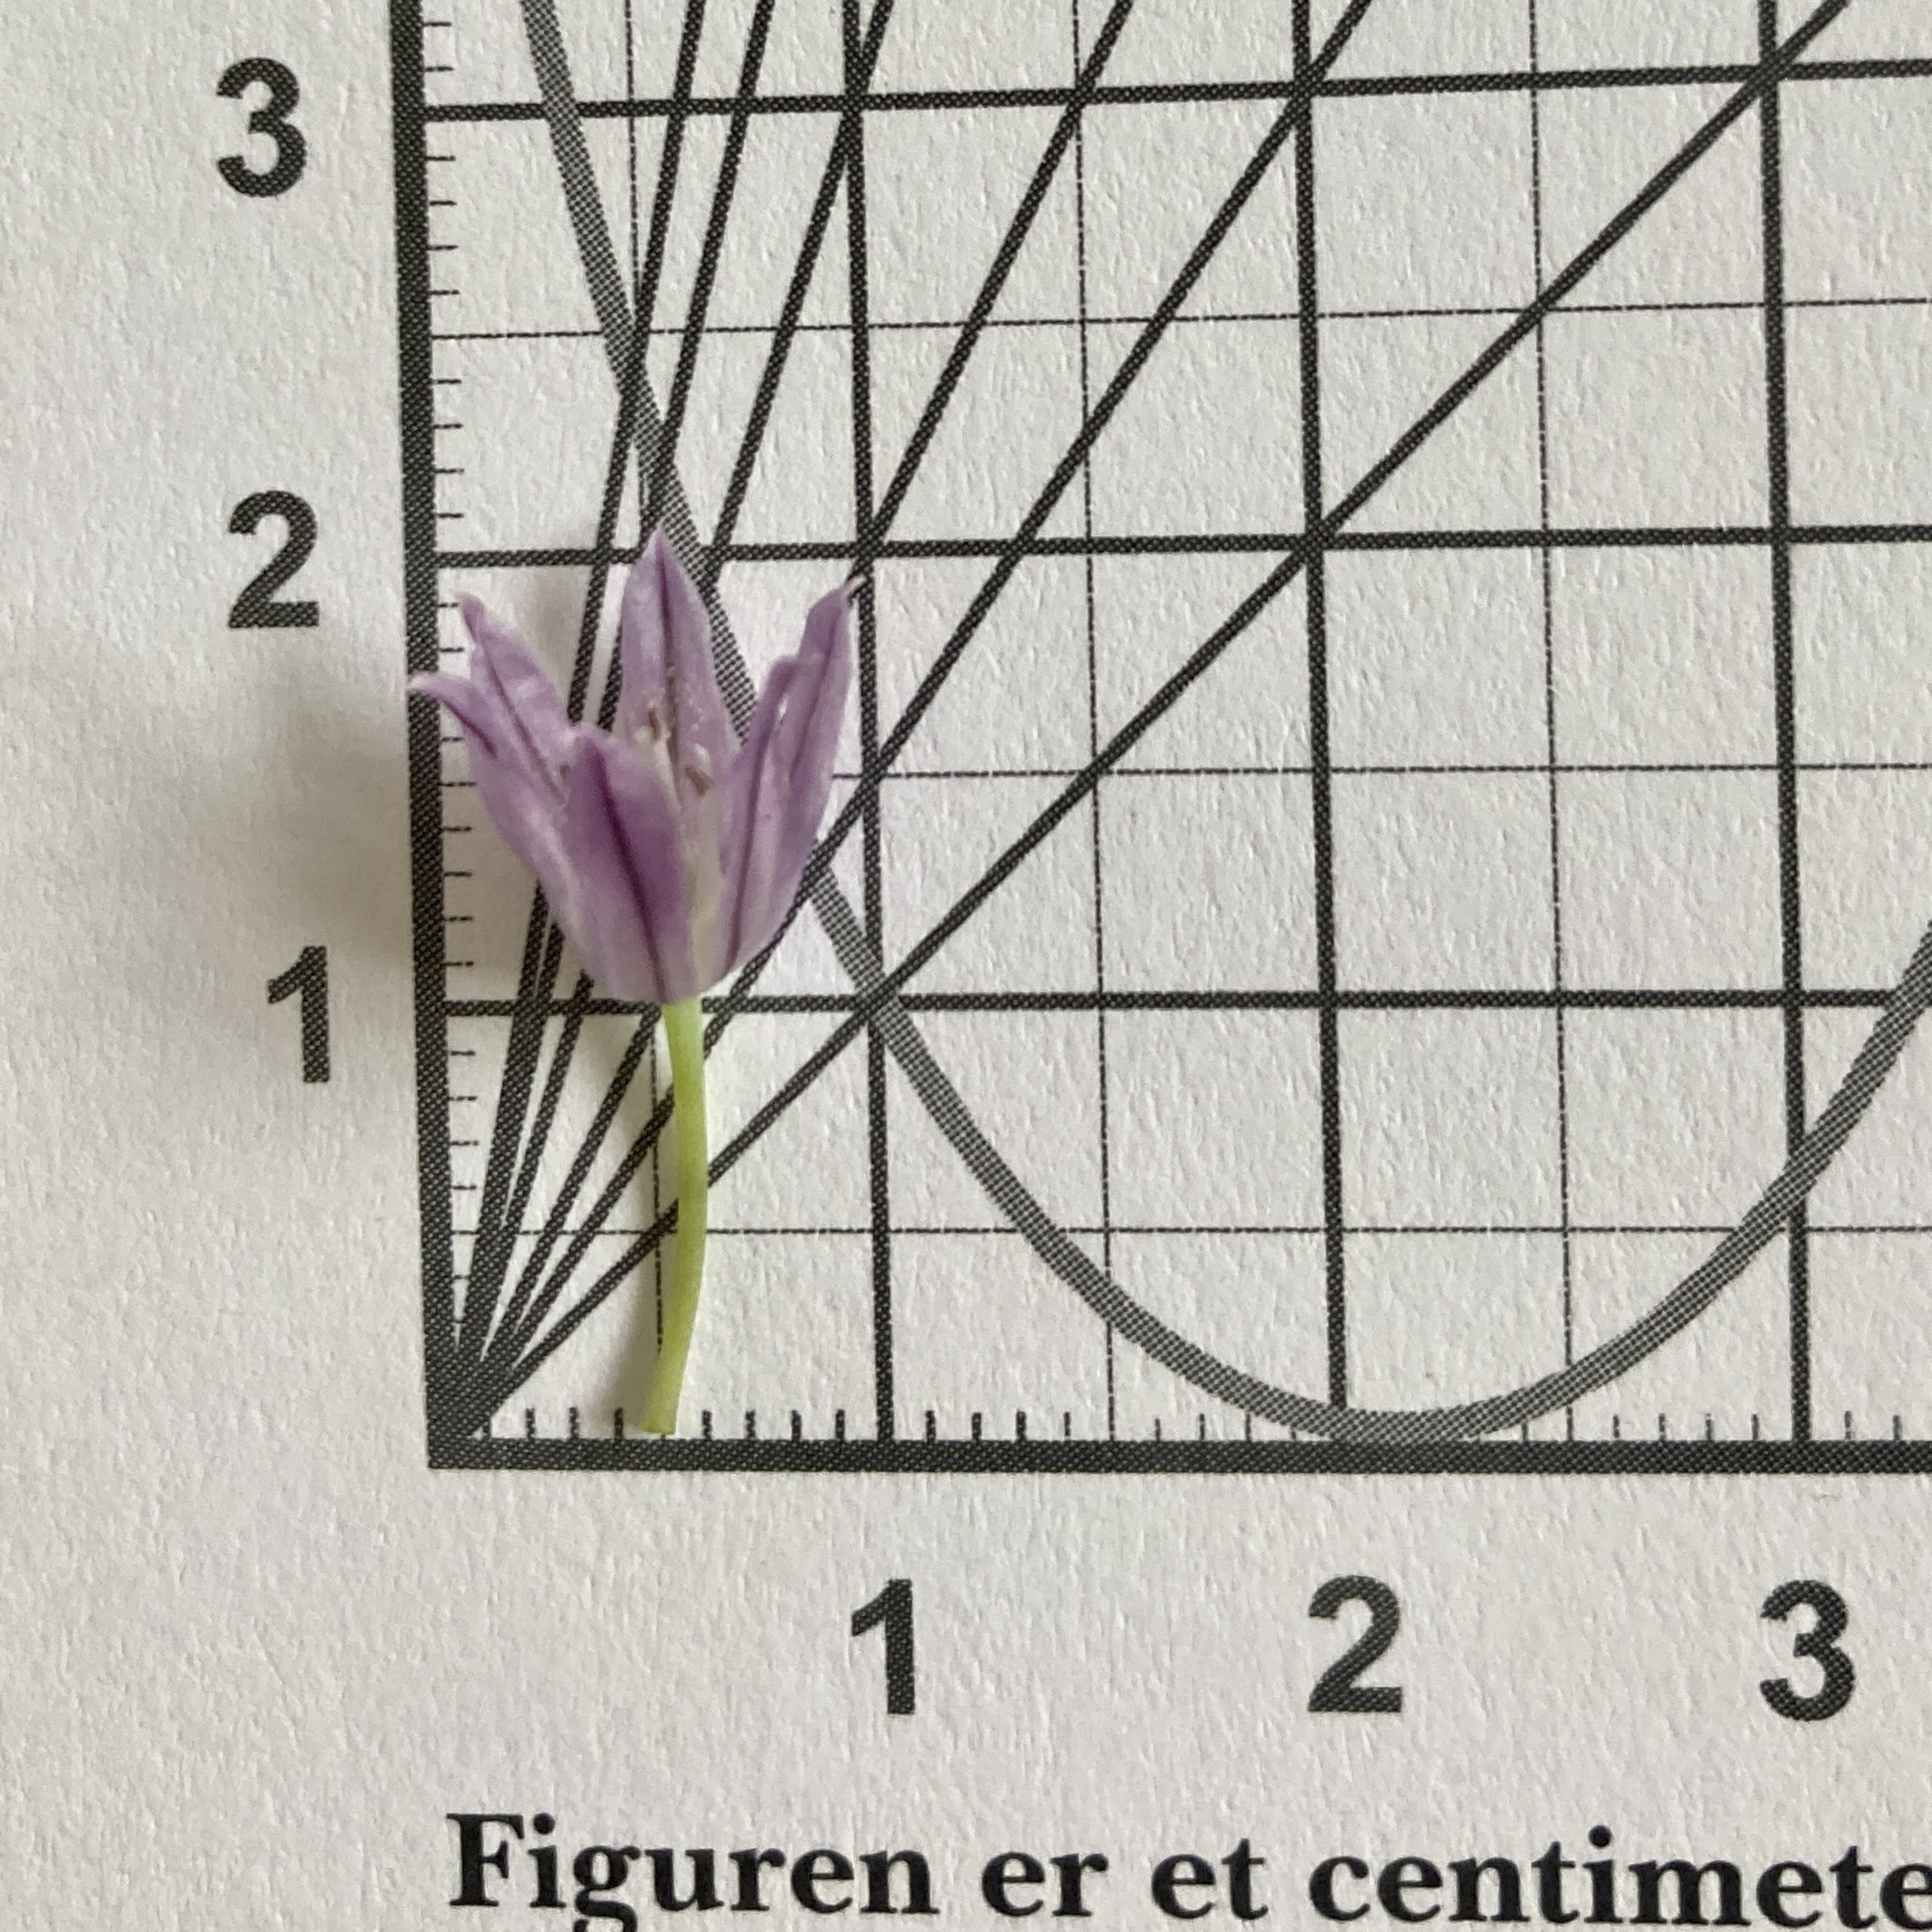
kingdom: Plantae
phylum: Tracheophyta
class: Liliopsida
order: Asparagales
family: Amaryllidaceae
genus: Allium
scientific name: Allium schoenoprasum
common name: Pur-løg
